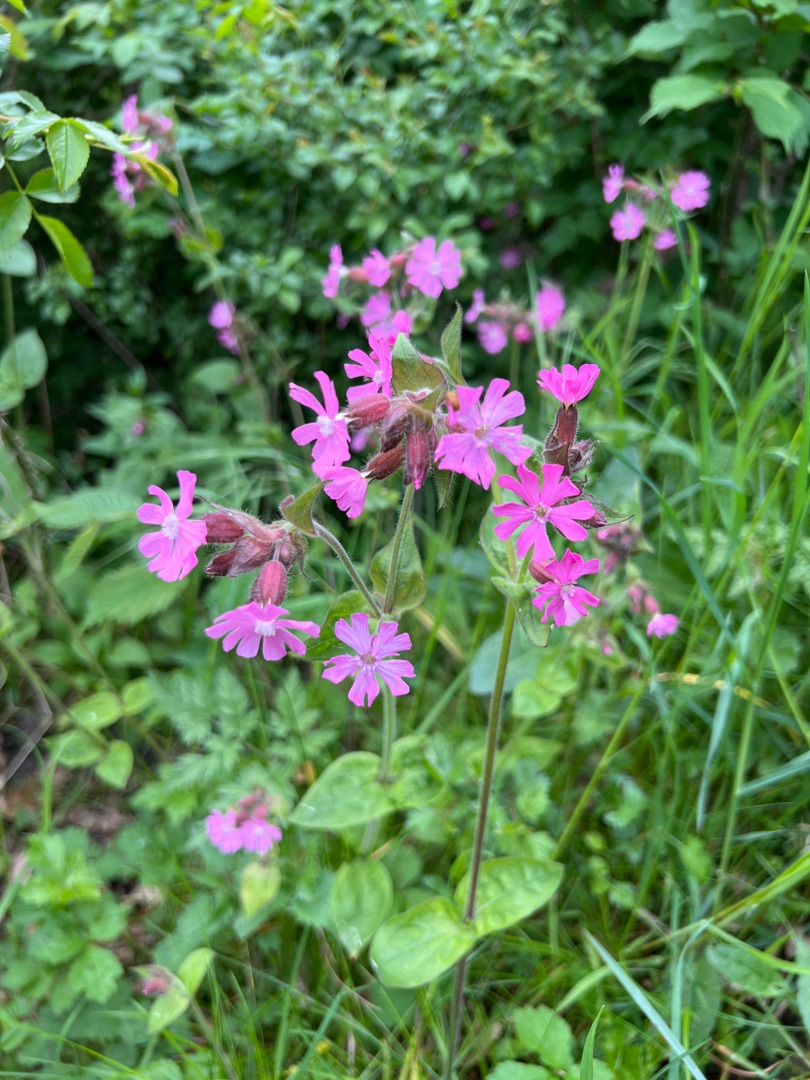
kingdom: Plantae
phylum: Tracheophyta
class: Magnoliopsida
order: Caryophyllales
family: Caryophyllaceae
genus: Silene
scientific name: Silene dioica
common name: Dagpragtstjerne
